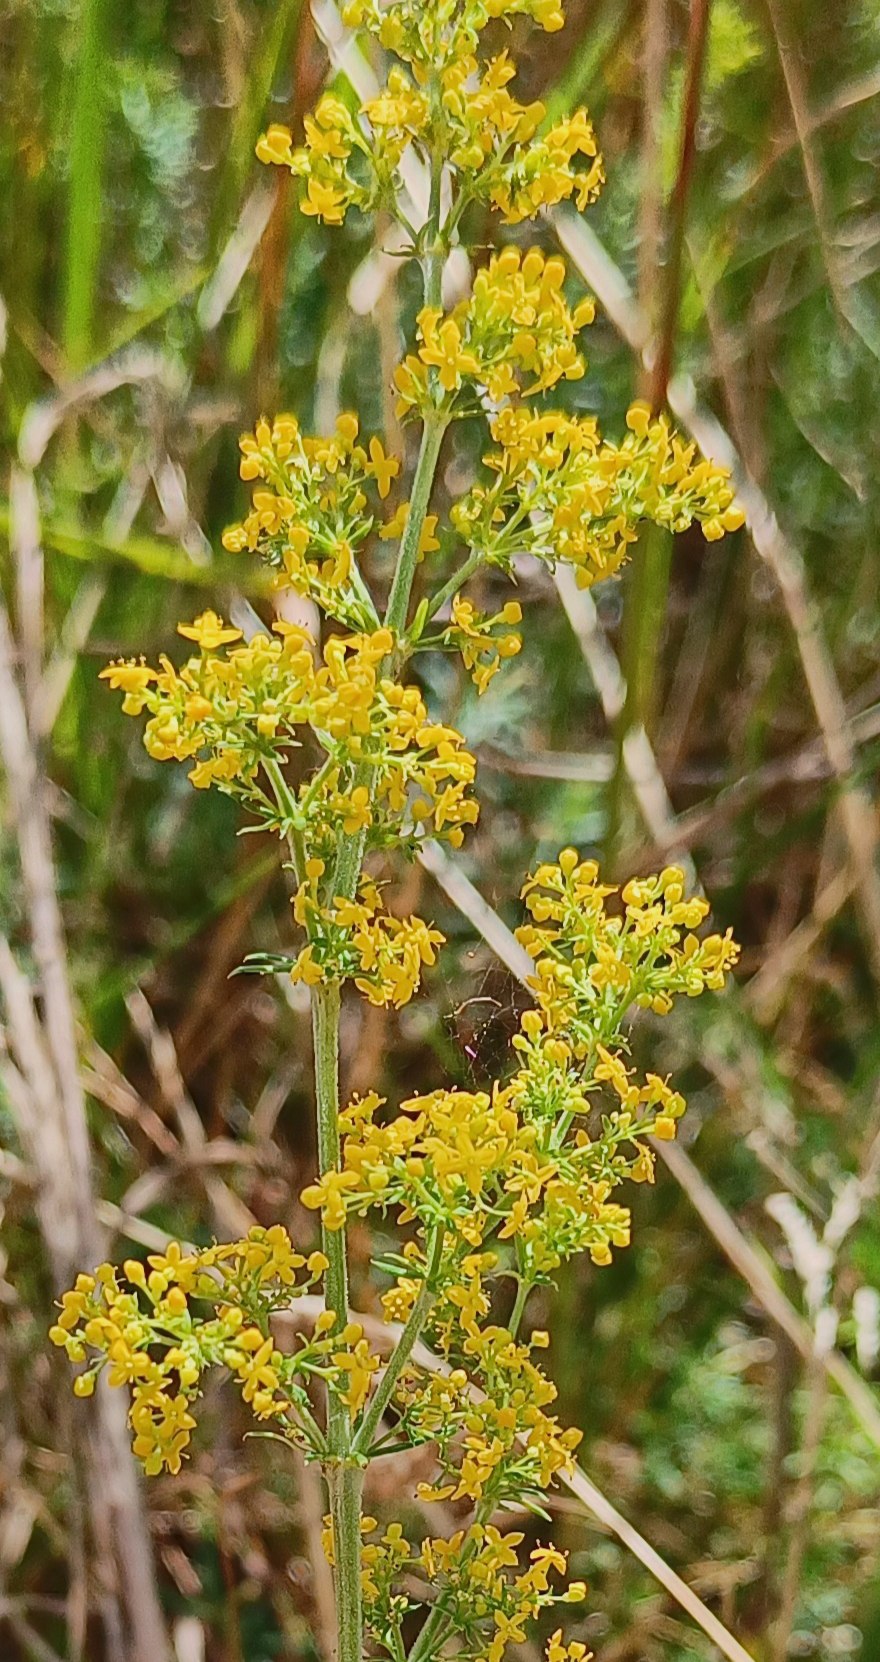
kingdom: Plantae
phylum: Tracheophyta
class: Magnoliopsida
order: Gentianales
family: Rubiaceae
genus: Galium
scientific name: Galium verum
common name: Gul snerre
